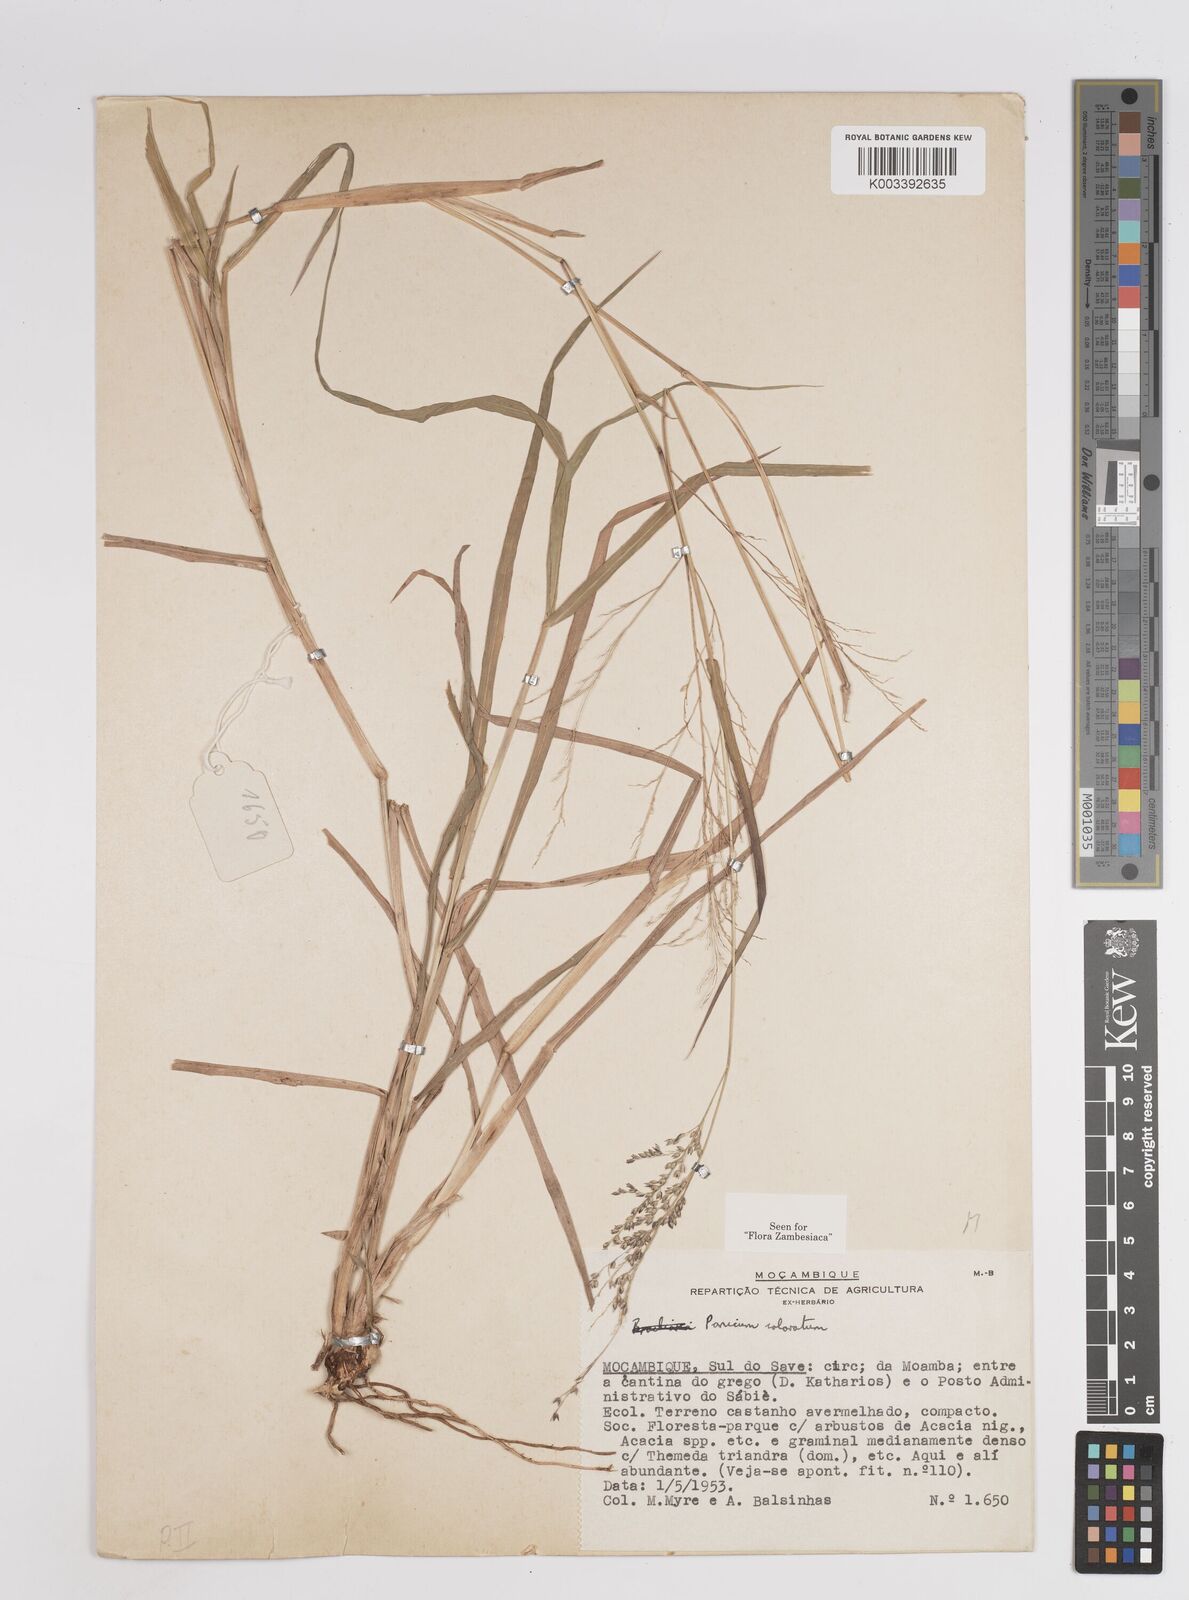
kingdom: Plantae
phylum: Tracheophyta
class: Liliopsida
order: Poales
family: Poaceae
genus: Panicum
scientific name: Panicum
